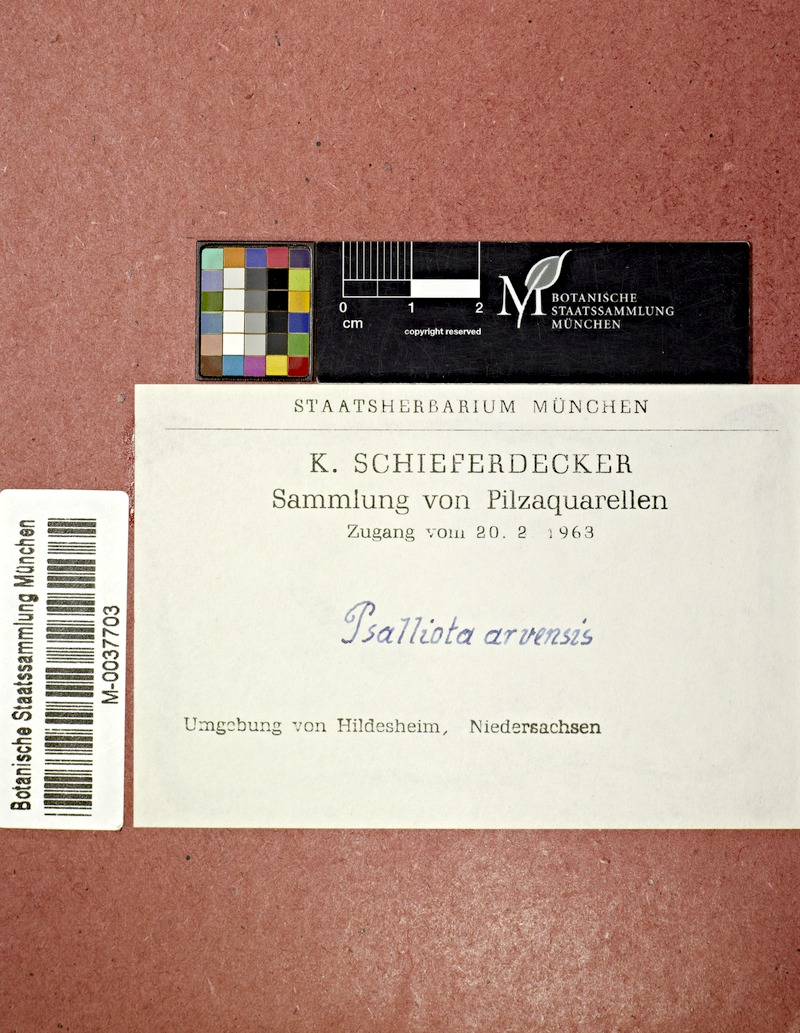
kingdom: Fungi
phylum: Basidiomycota
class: Agaricomycetes
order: Agaricales
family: Agaricaceae
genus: Agaricus
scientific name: Agaricus macrocarpus
